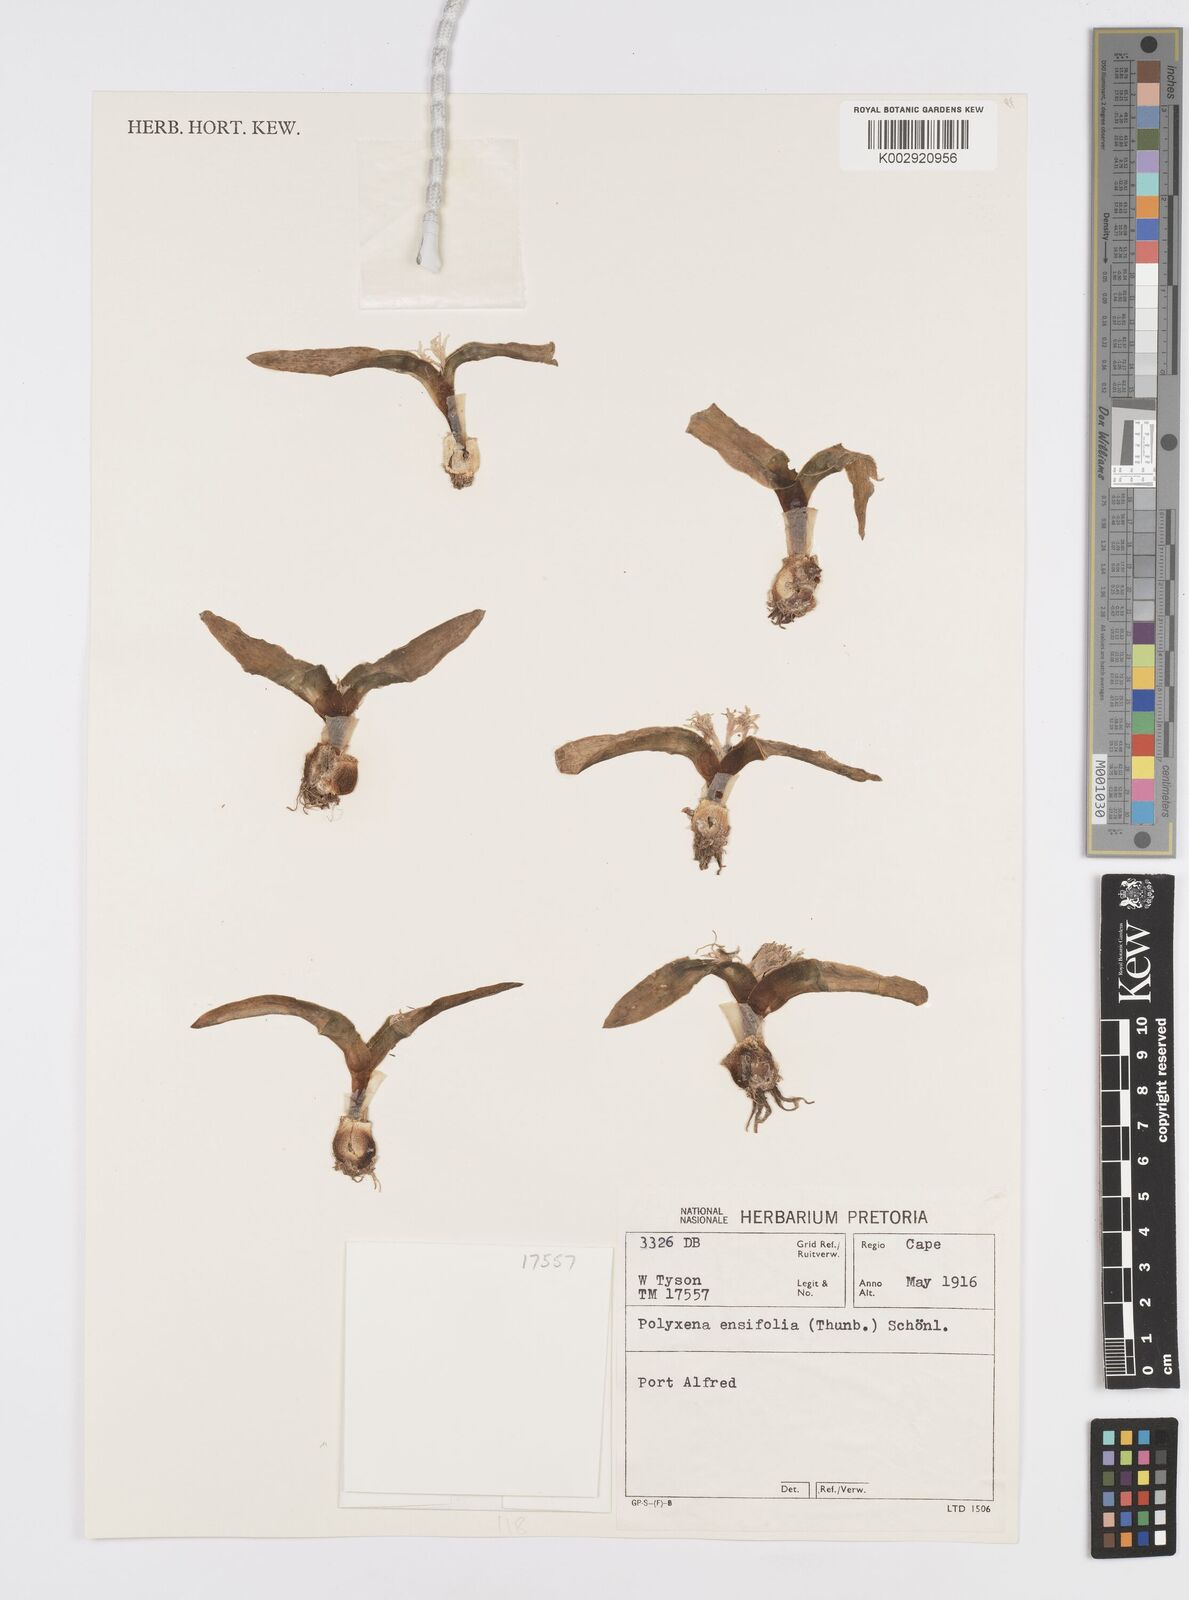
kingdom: Plantae
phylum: Tracheophyta
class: Liliopsida
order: Asparagales
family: Asparagaceae
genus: Lachenalia
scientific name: Lachenalia ensifolia
